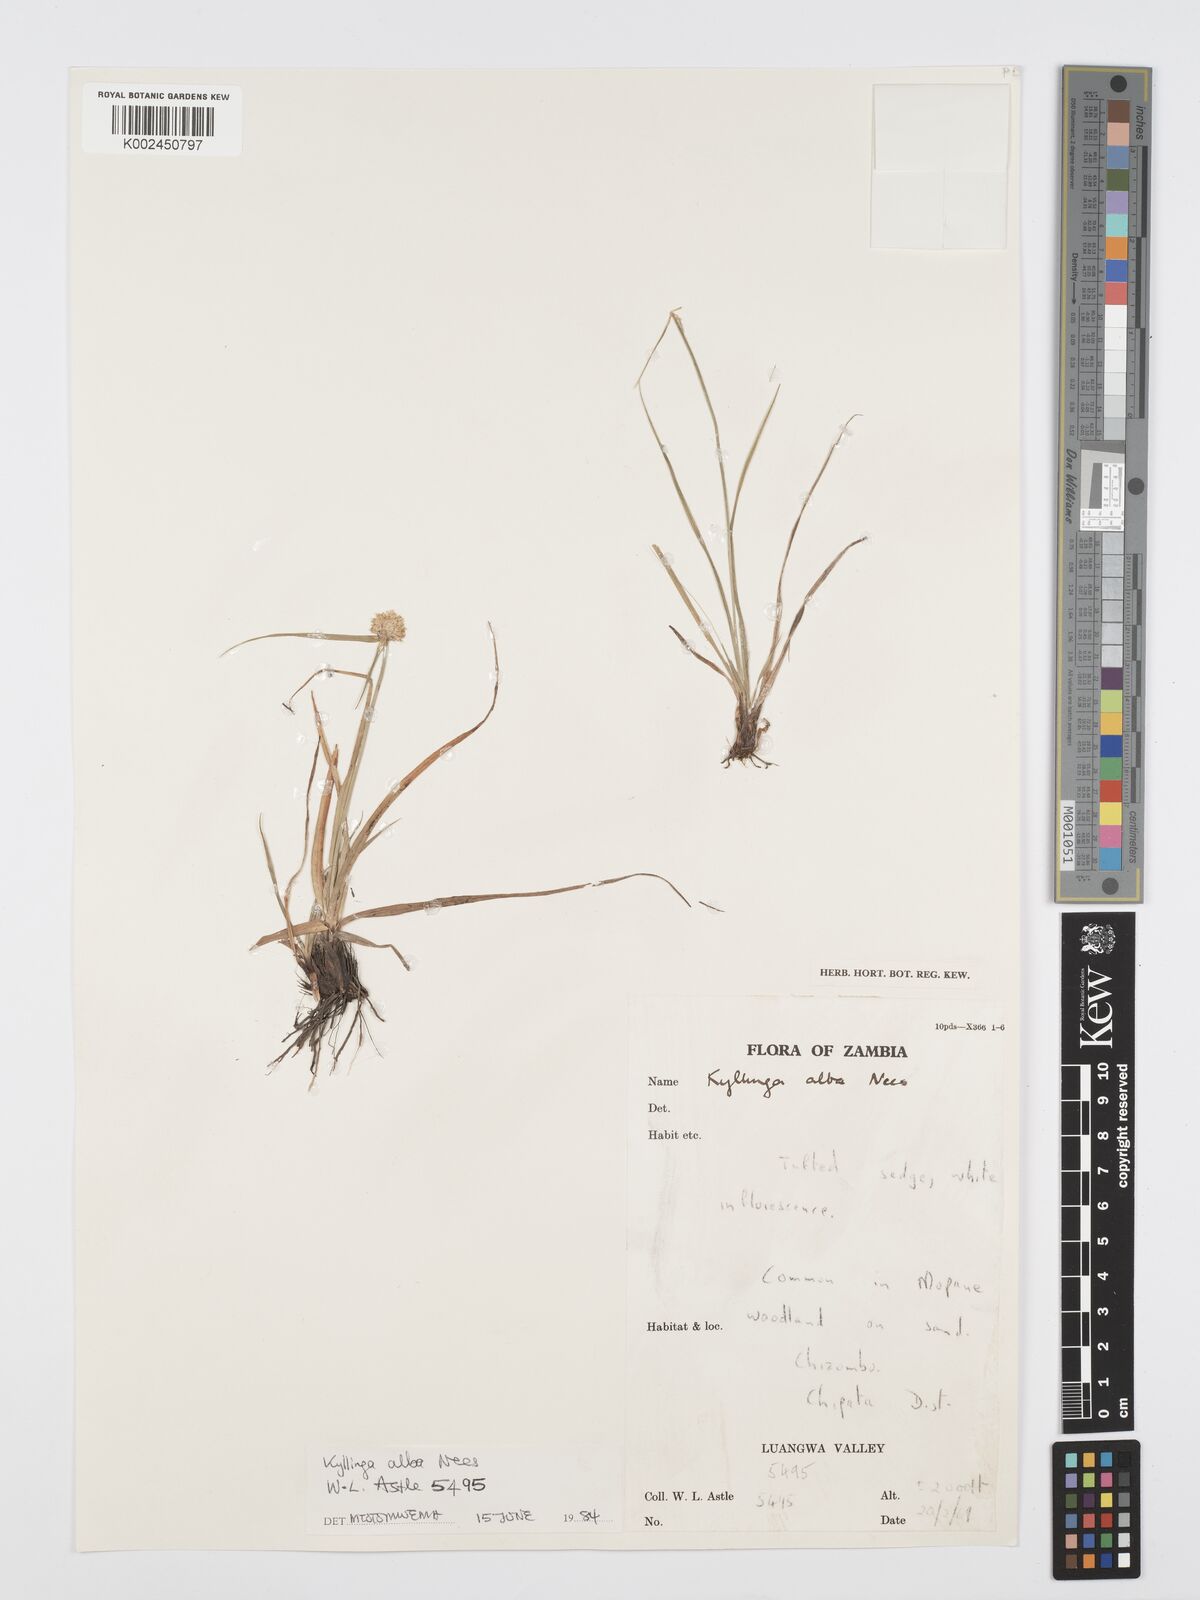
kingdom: Plantae
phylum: Tracheophyta
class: Liliopsida
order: Poales
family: Cyperaceae
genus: Cyperus
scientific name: Cyperus
